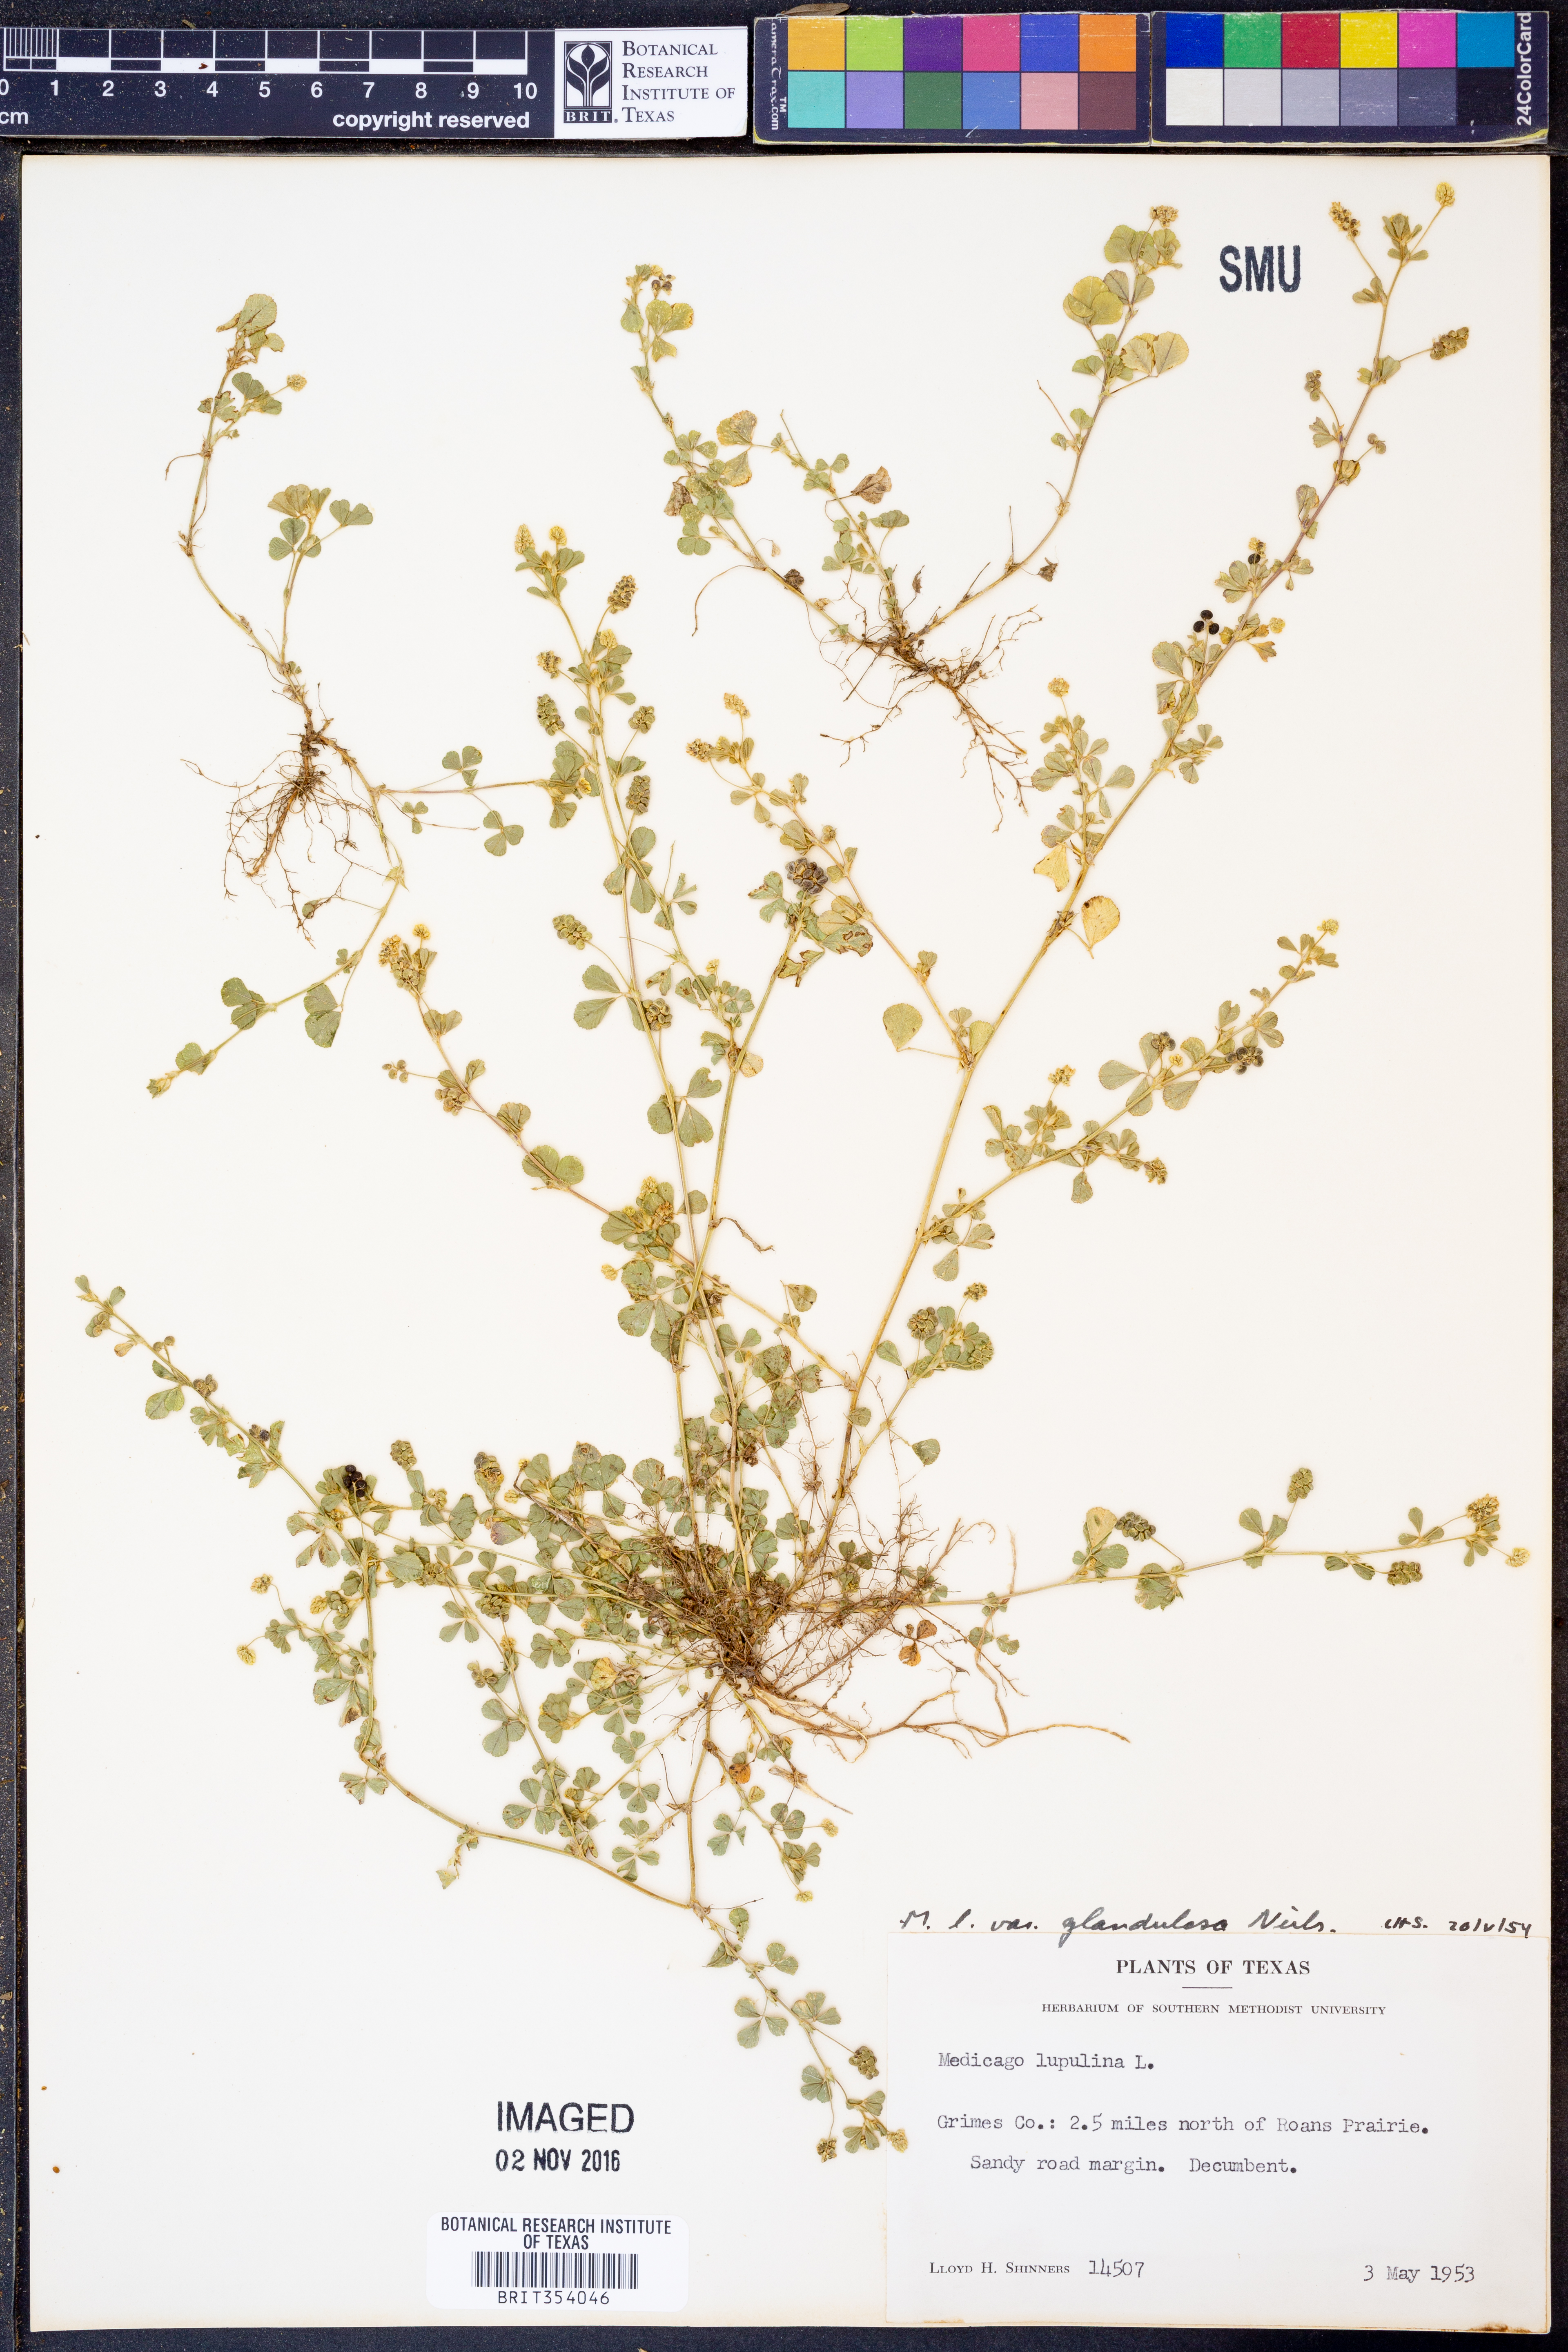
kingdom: Plantae
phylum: Tracheophyta
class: Magnoliopsida
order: Fabales
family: Fabaceae
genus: Medicago
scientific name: Medicago lupulina
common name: Black medick
